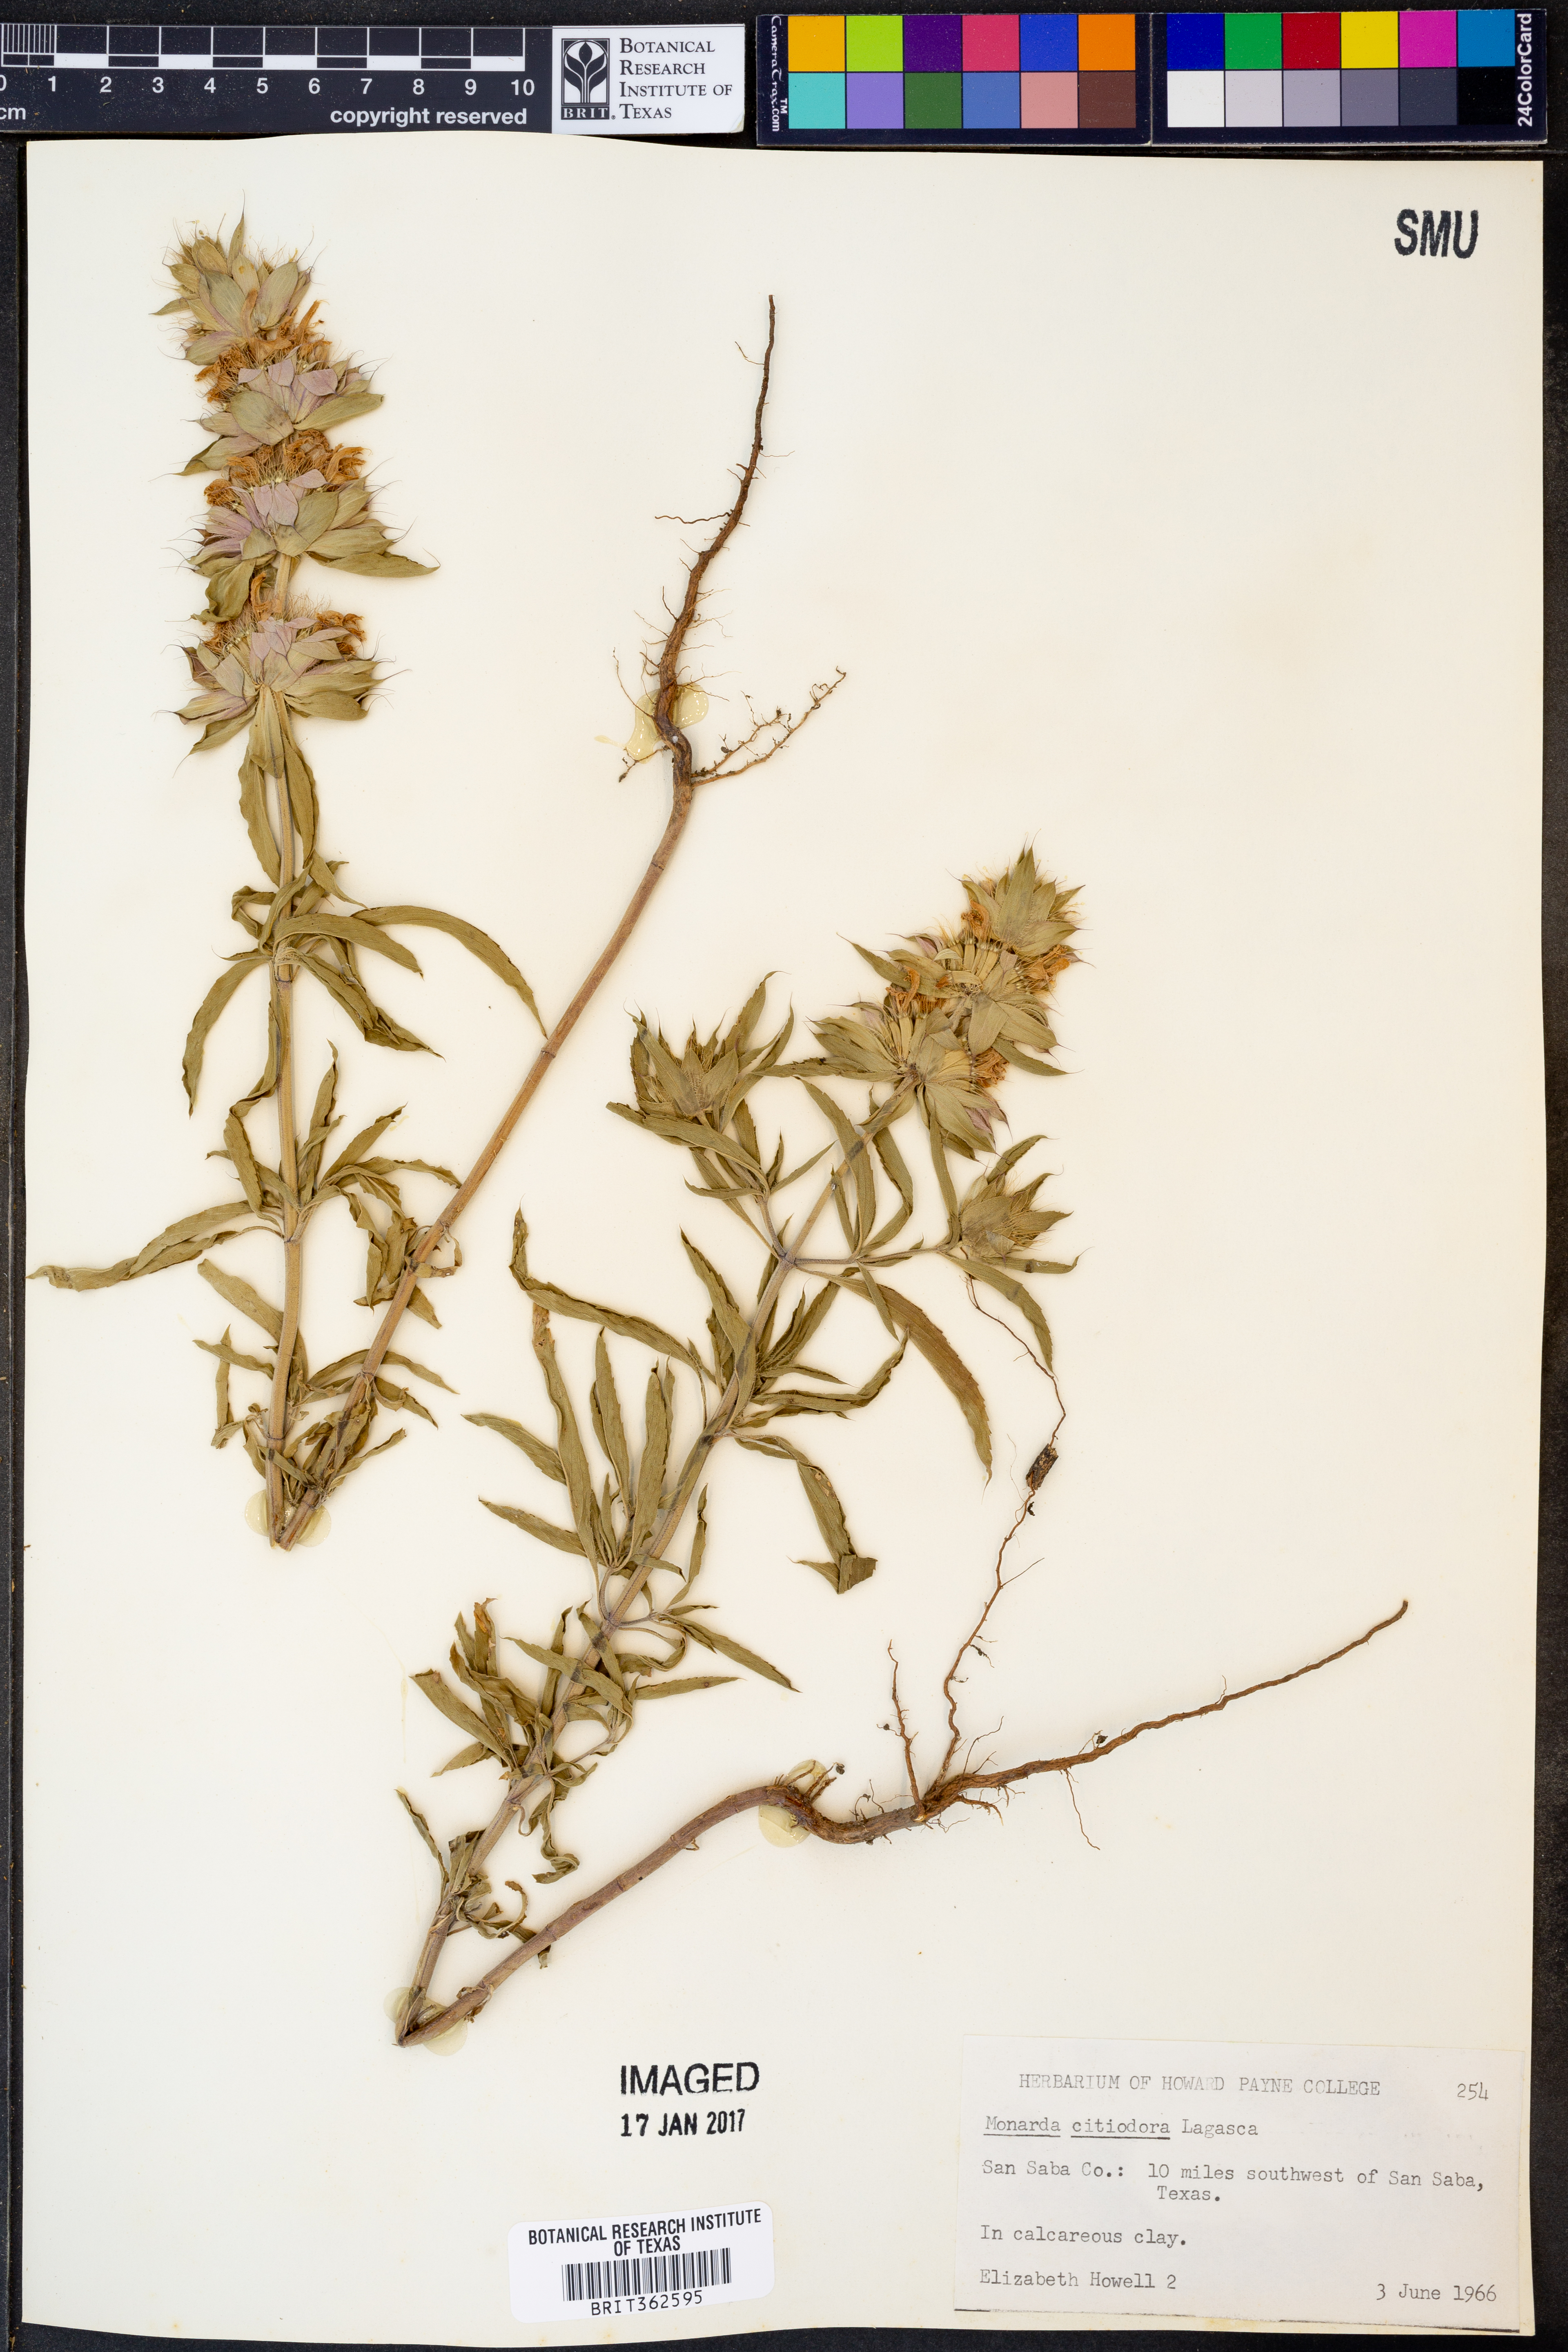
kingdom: Plantae
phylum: Tracheophyta
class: Magnoliopsida
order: Lamiales
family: Lamiaceae
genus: Monarda
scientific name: Monarda citriodora
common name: Lemon beebalm
